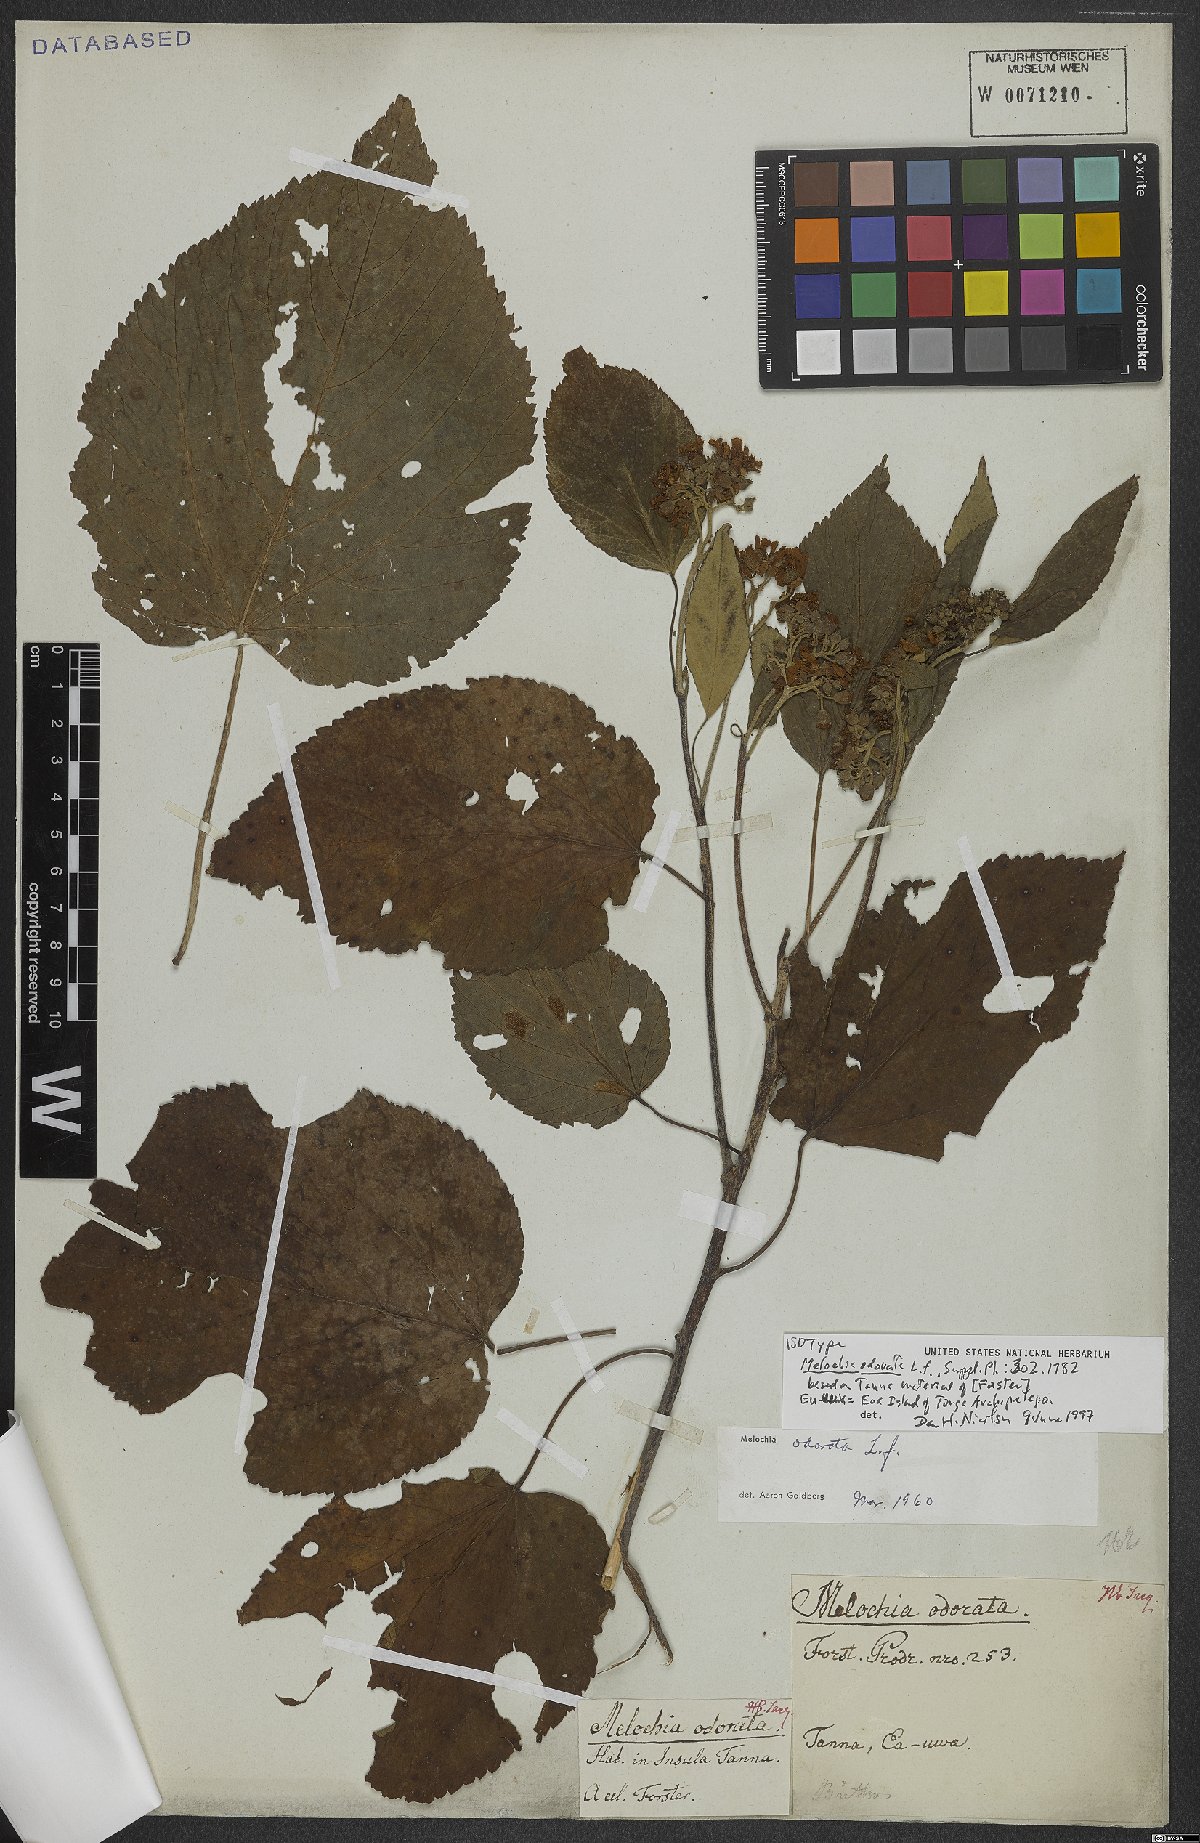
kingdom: Plantae
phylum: Tracheophyta
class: Magnoliopsida
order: Malvales
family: Malvaceae
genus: Melochia
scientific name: Melochia odorata
